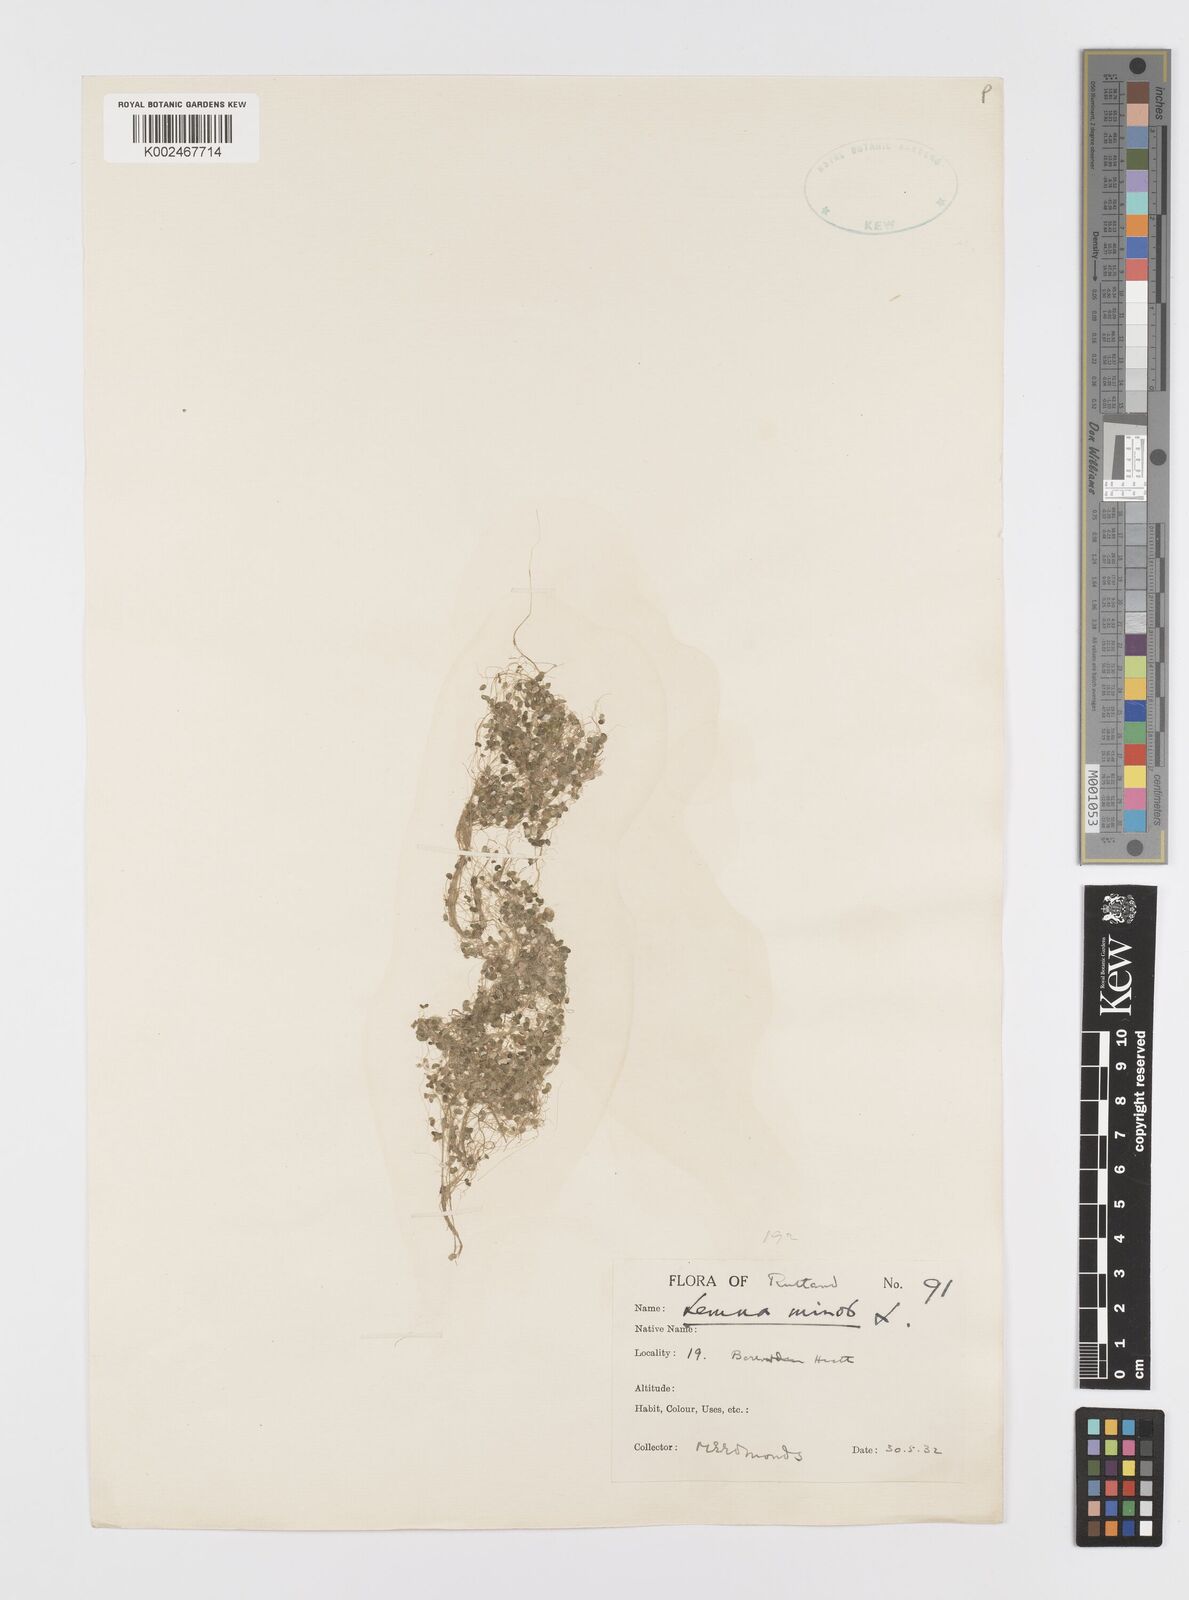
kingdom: Plantae
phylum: Tracheophyta
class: Liliopsida
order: Alismatales
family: Araceae
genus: Lemna
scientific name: Lemna minor
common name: Common duckweed
